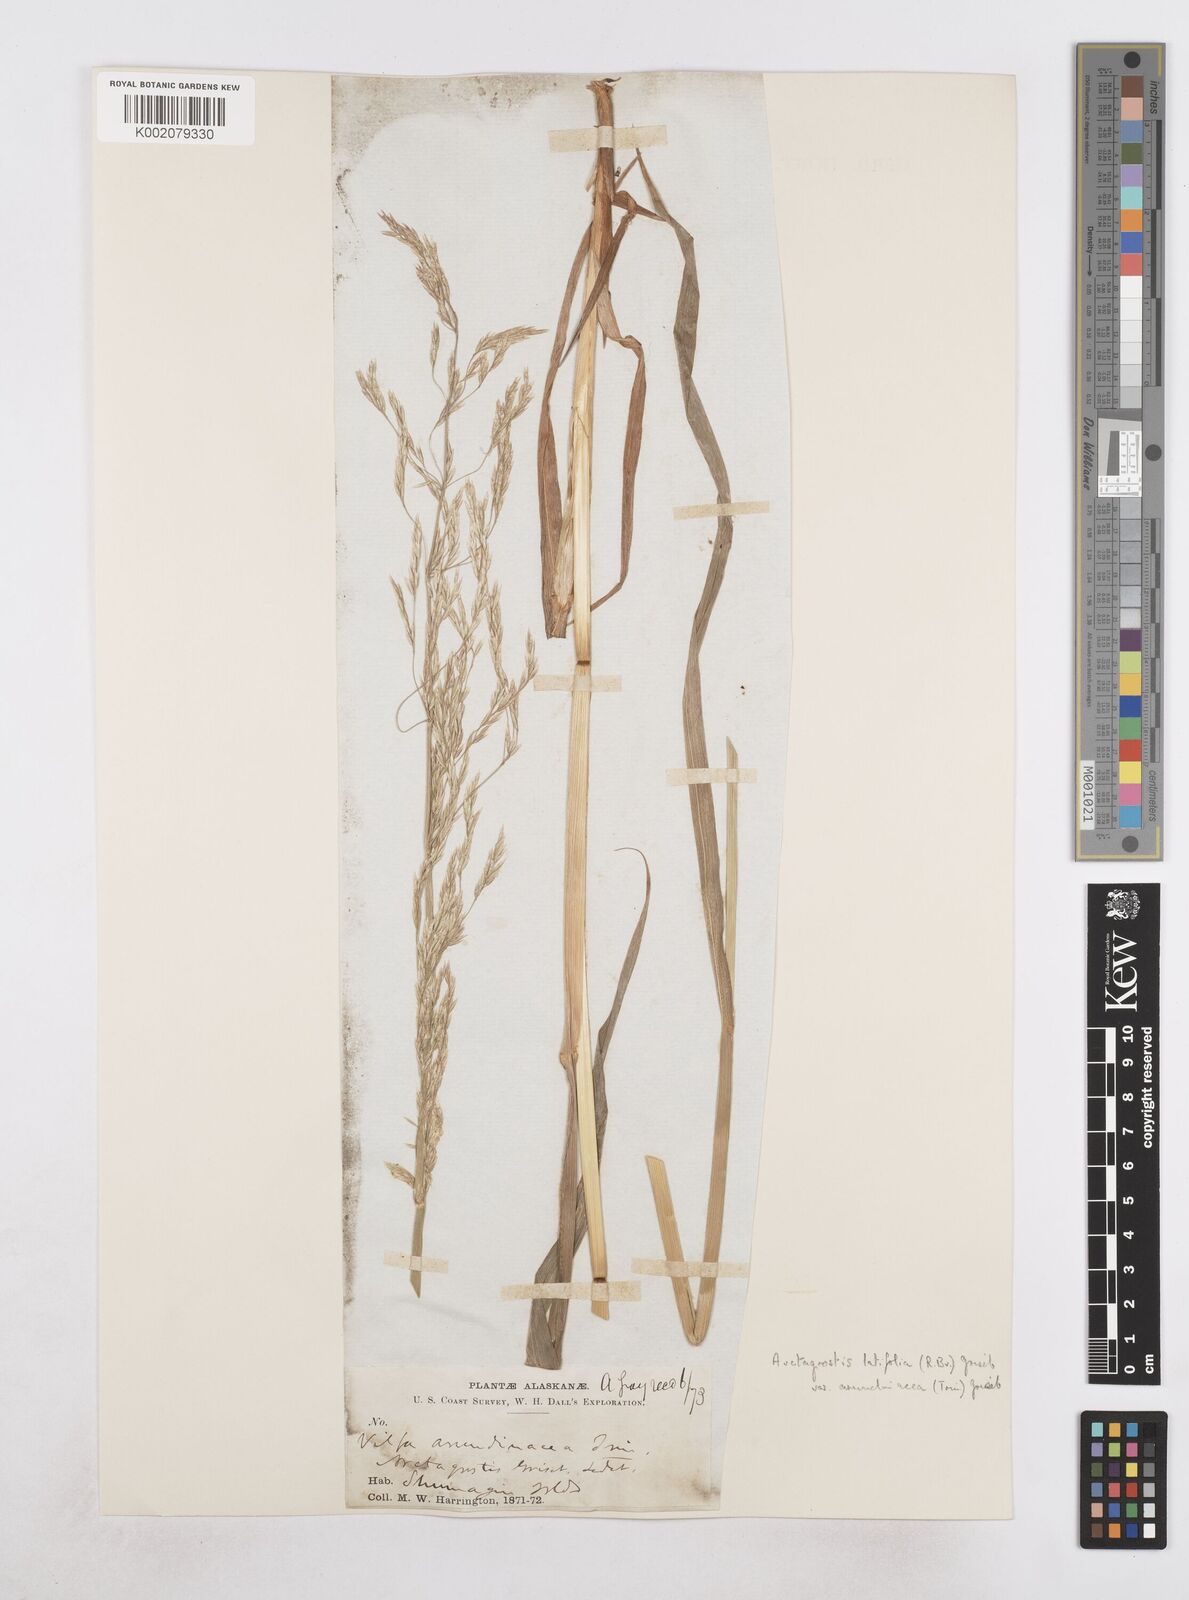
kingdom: Plantae
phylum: Tracheophyta
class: Liliopsida
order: Poales
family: Poaceae
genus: Arctagrostis
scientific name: Arctagrostis arundinacea
